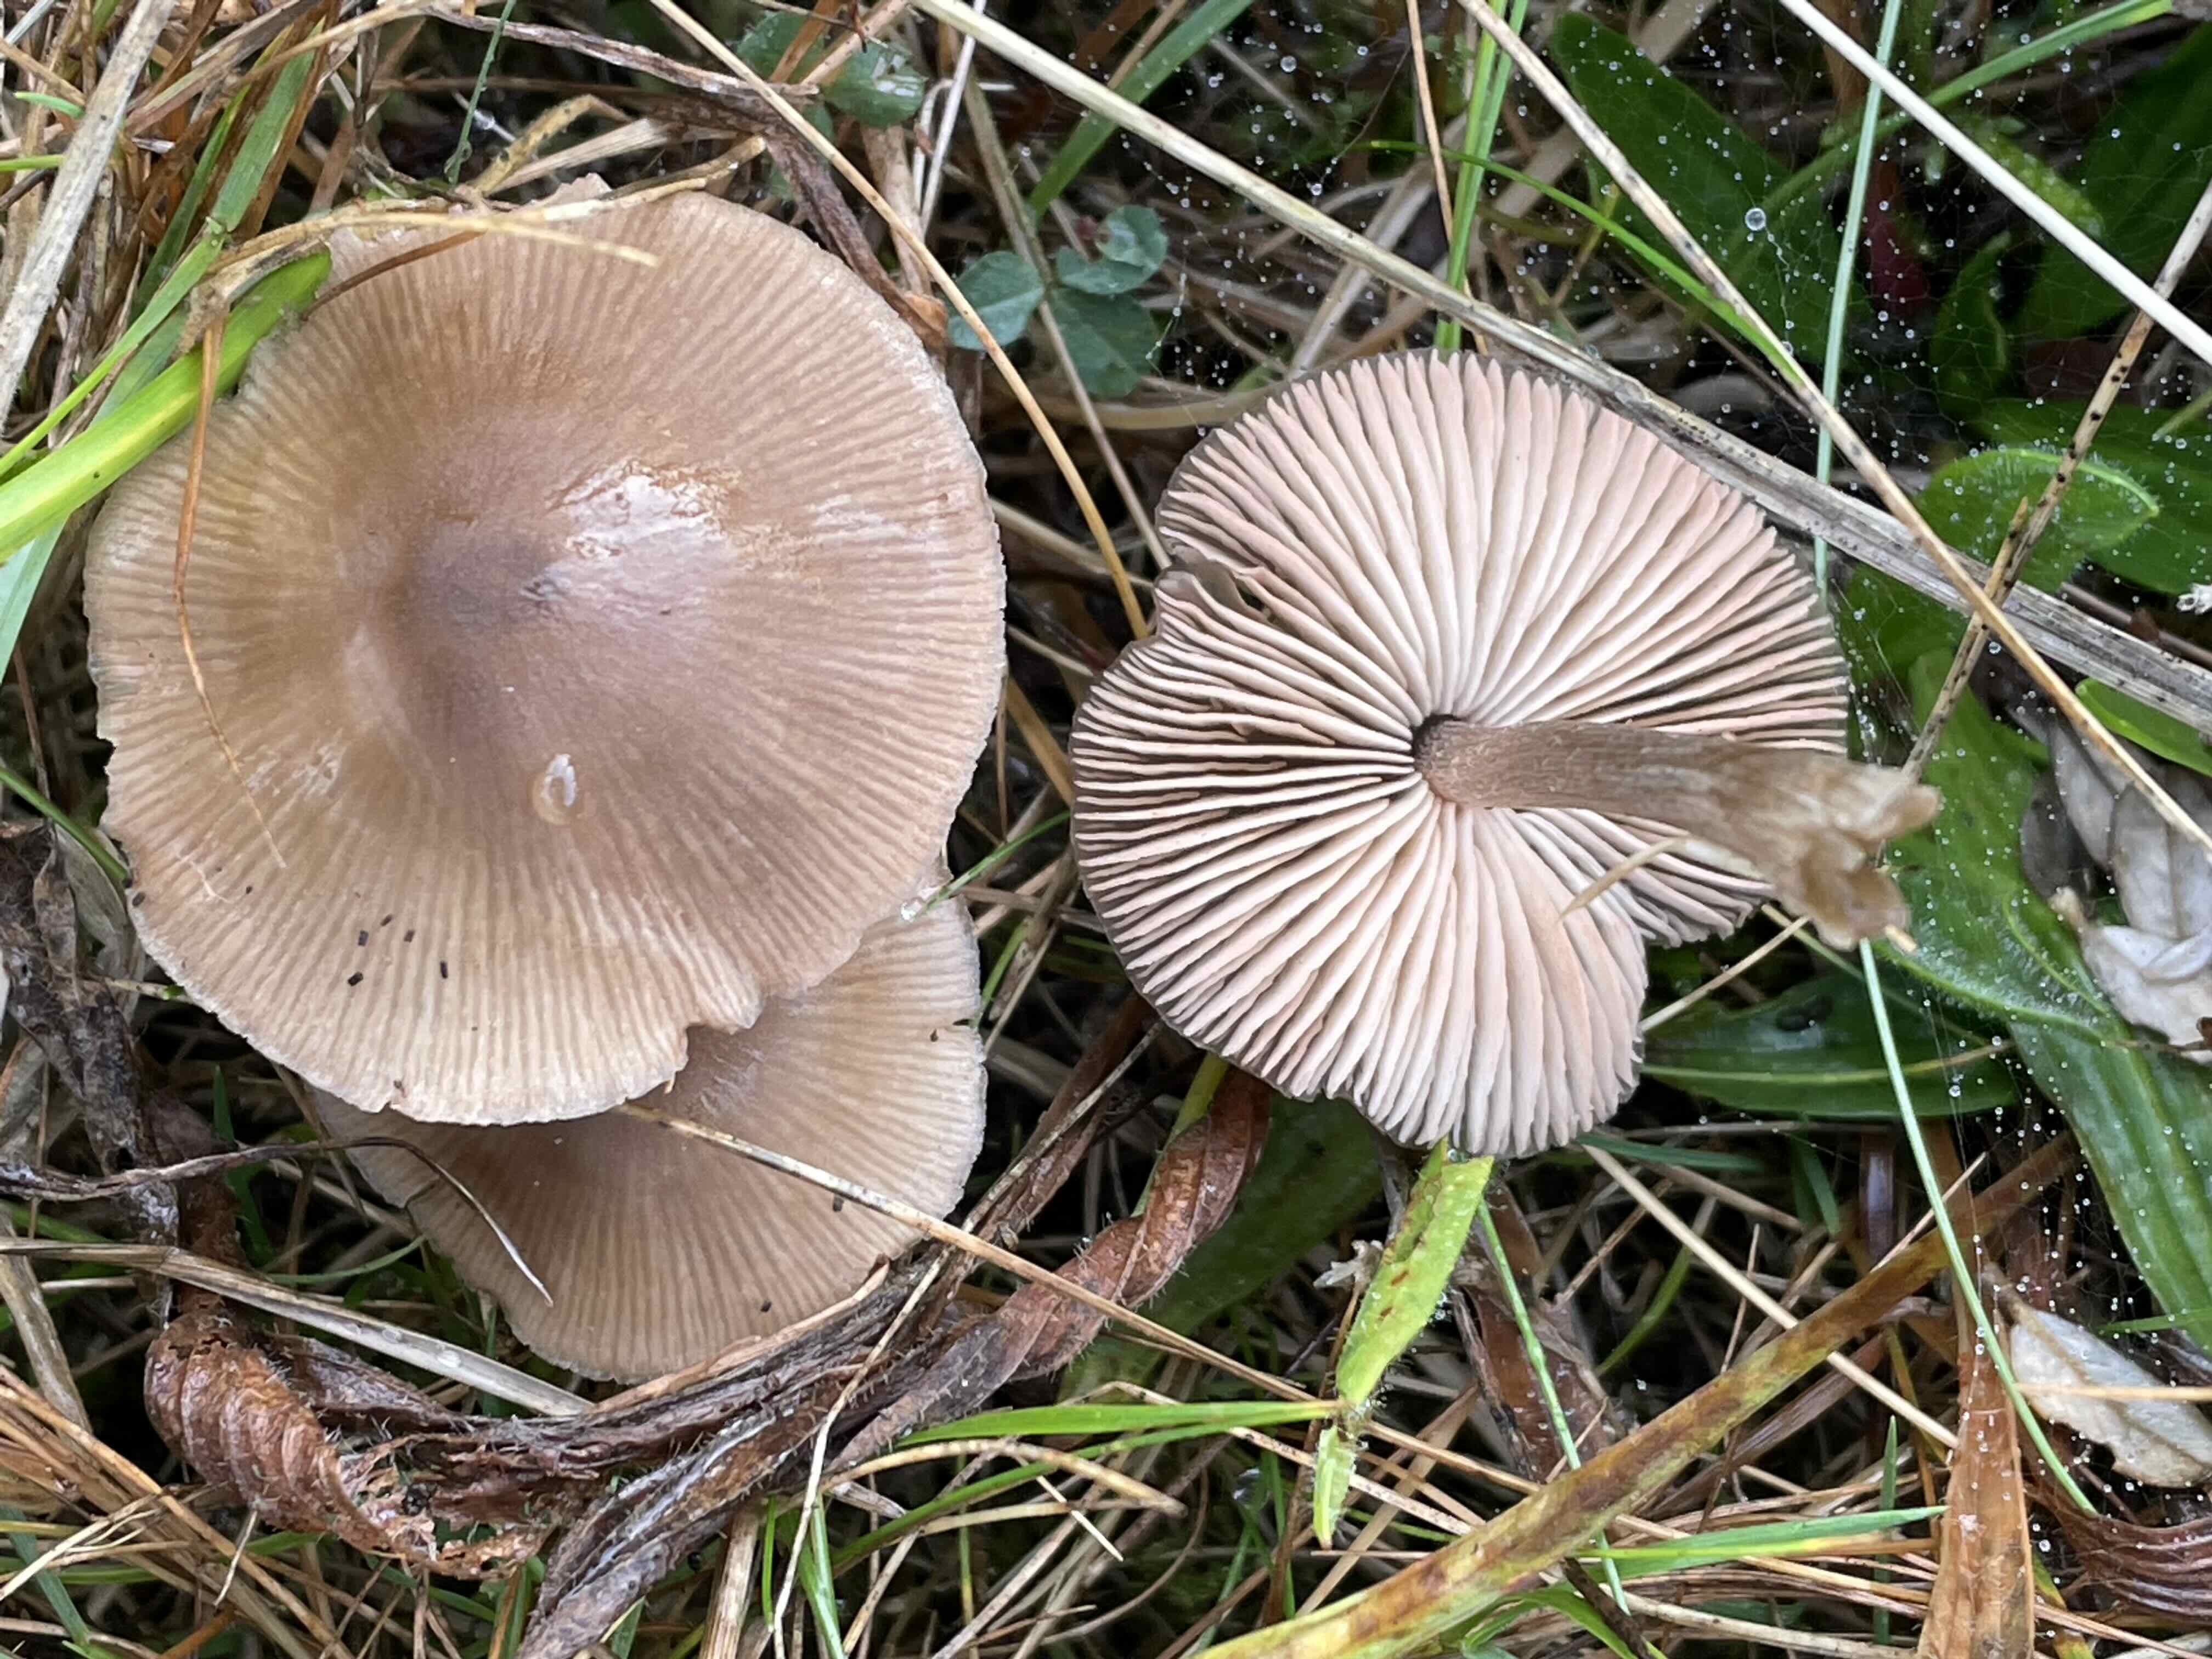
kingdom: Fungi
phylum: Basidiomycota
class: Agaricomycetes
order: Agaricales
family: Entolomataceae
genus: Entoloma
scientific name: Entoloma
